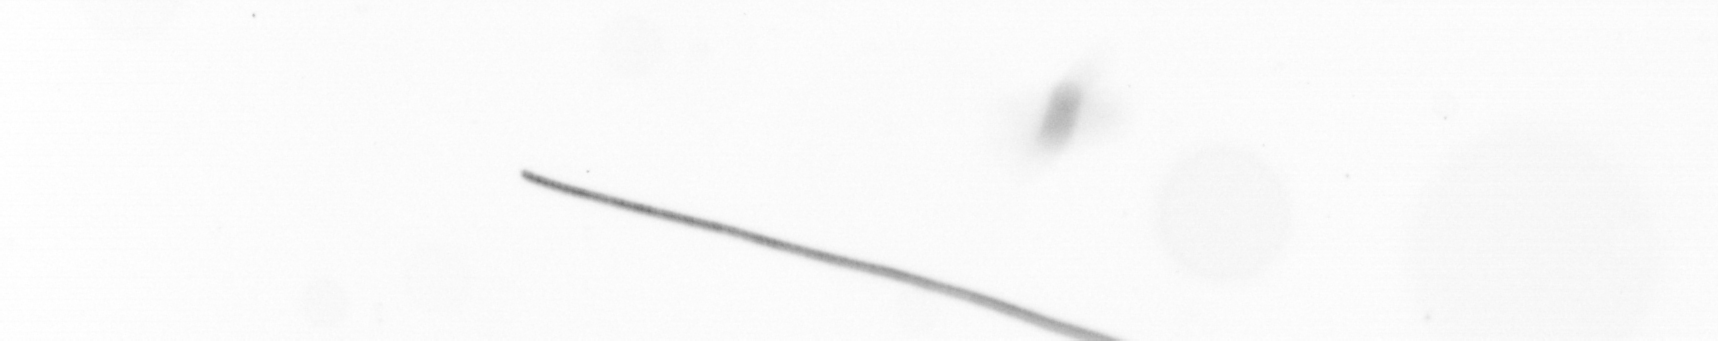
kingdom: Chromista
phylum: Ochrophyta
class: Bacillariophyceae
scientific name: Bacillariophyceae
